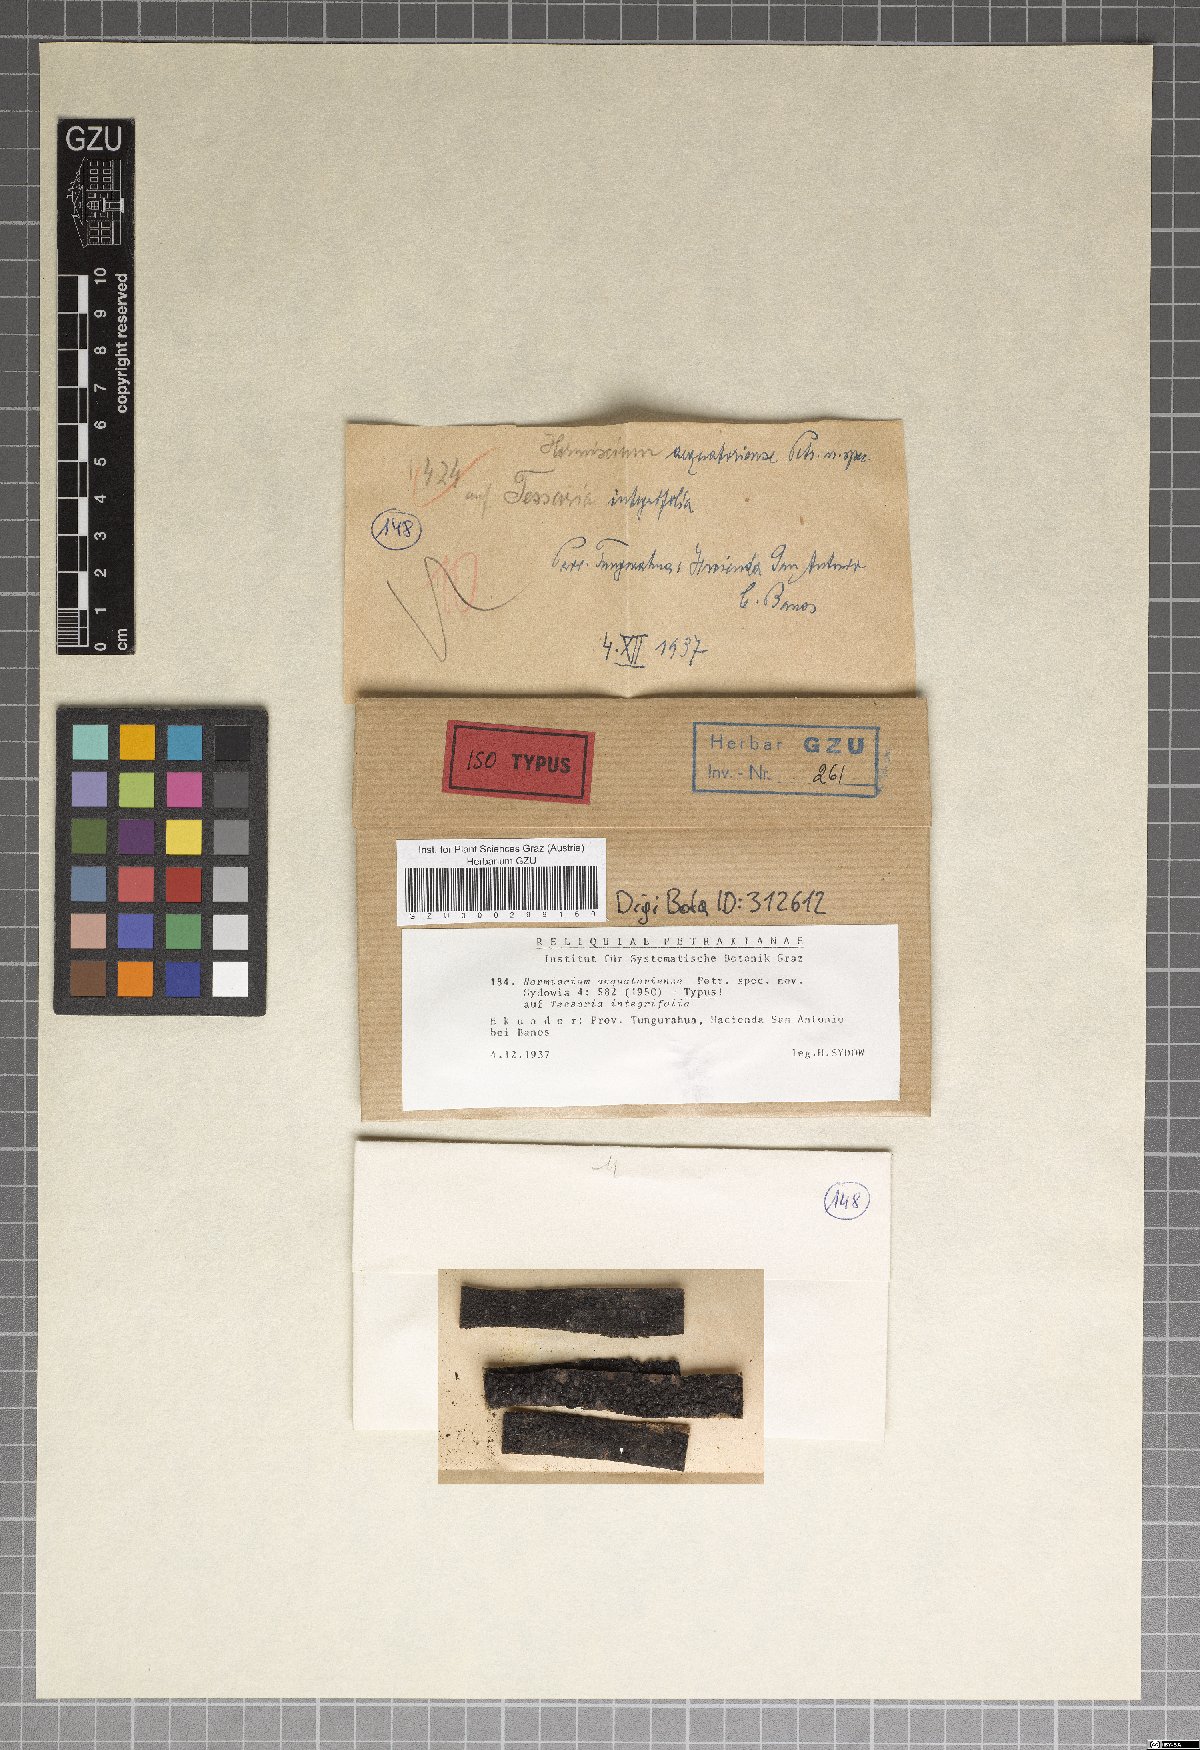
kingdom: Fungi
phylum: Ascomycota
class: Dothideomycetes
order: Pleosporales
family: Torulaceae
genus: Hormiscium
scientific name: Hormiscium aequatoriense
